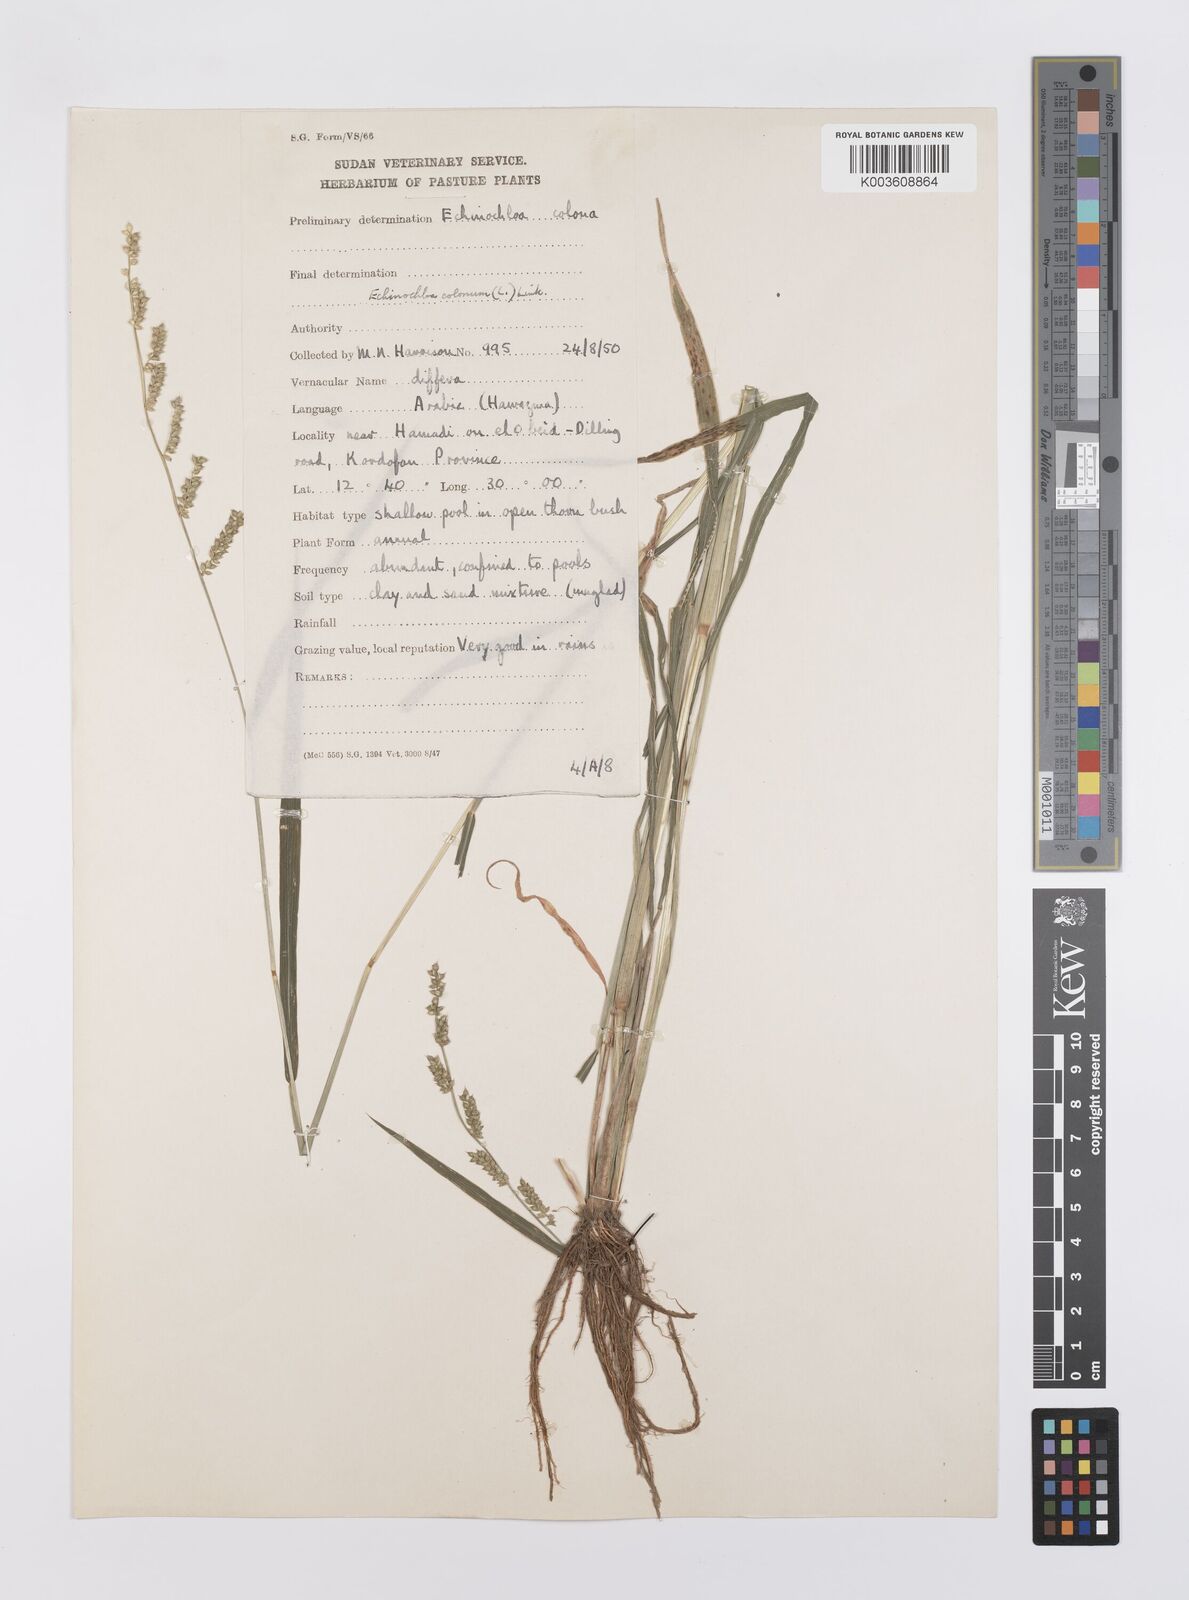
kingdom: Plantae
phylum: Tracheophyta
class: Liliopsida
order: Poales
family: Poaceae
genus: Echinochloa
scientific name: Echinochloa colonum
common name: Jungle rice
